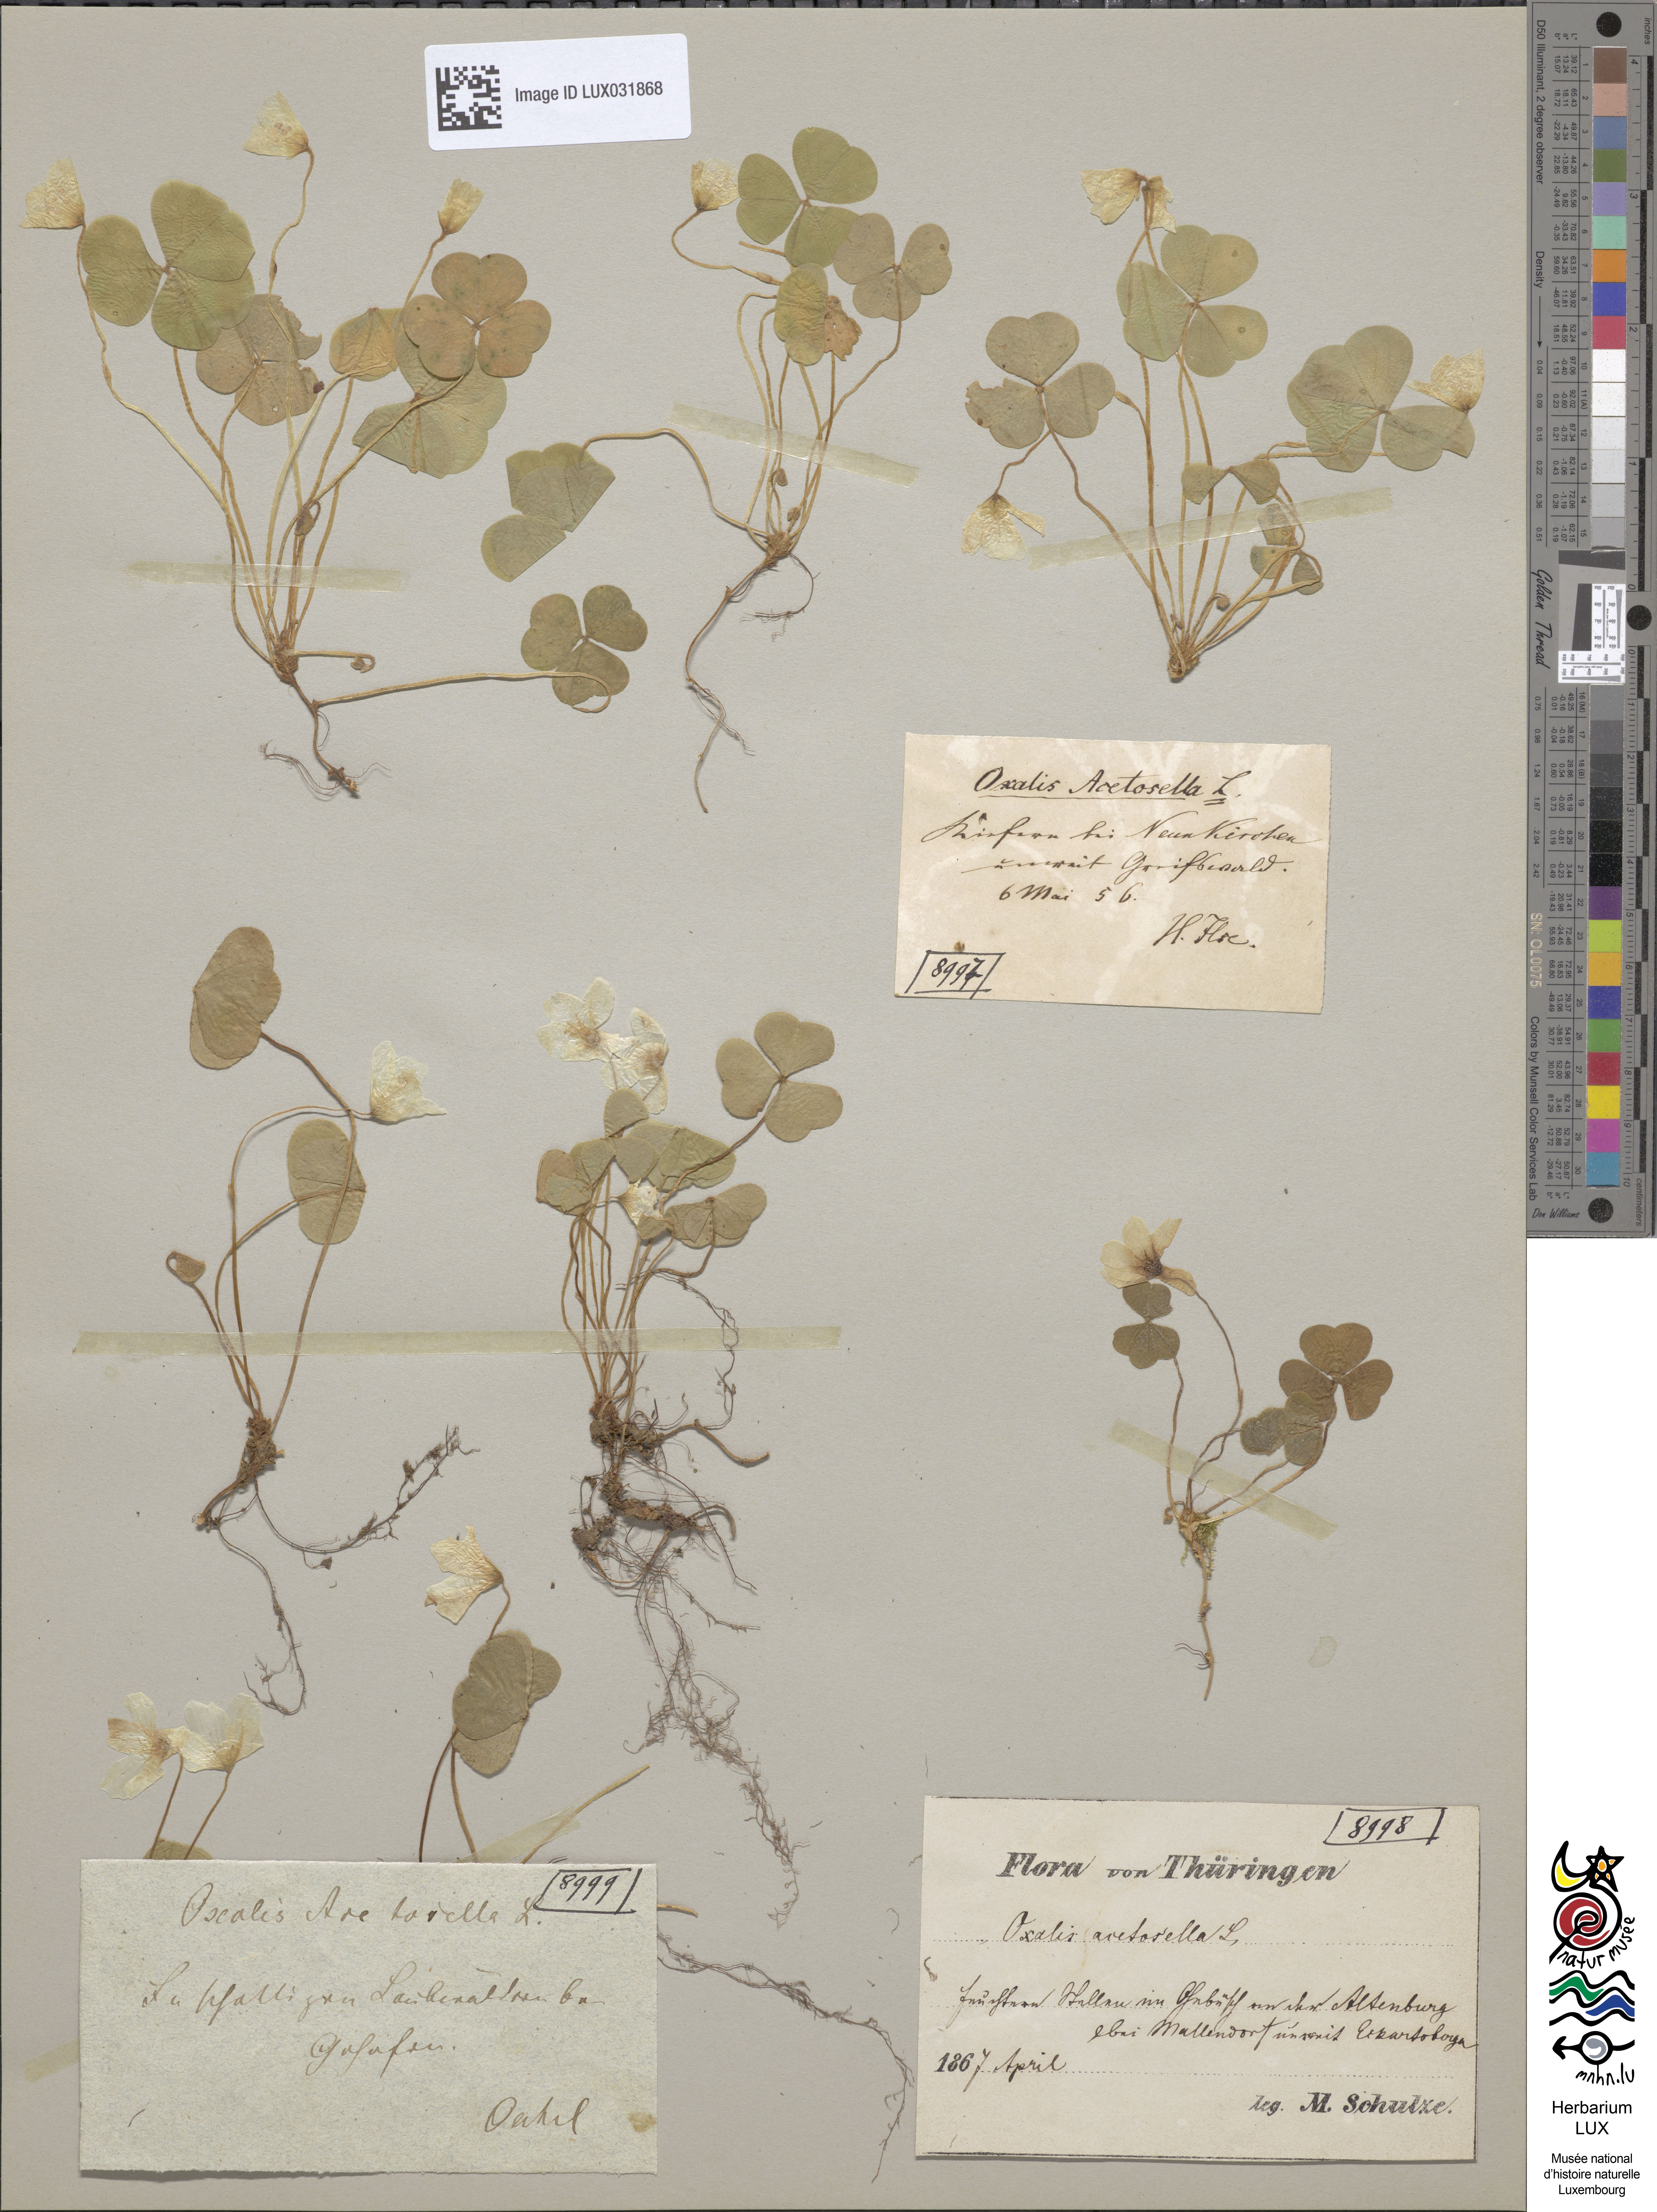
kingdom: Plantae
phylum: Tracheophyta
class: Magnoliopsida
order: Oxalidales
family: Oxalidaceae
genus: Oxalis
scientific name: Oxalis acetosella
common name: Wood-sorrel
